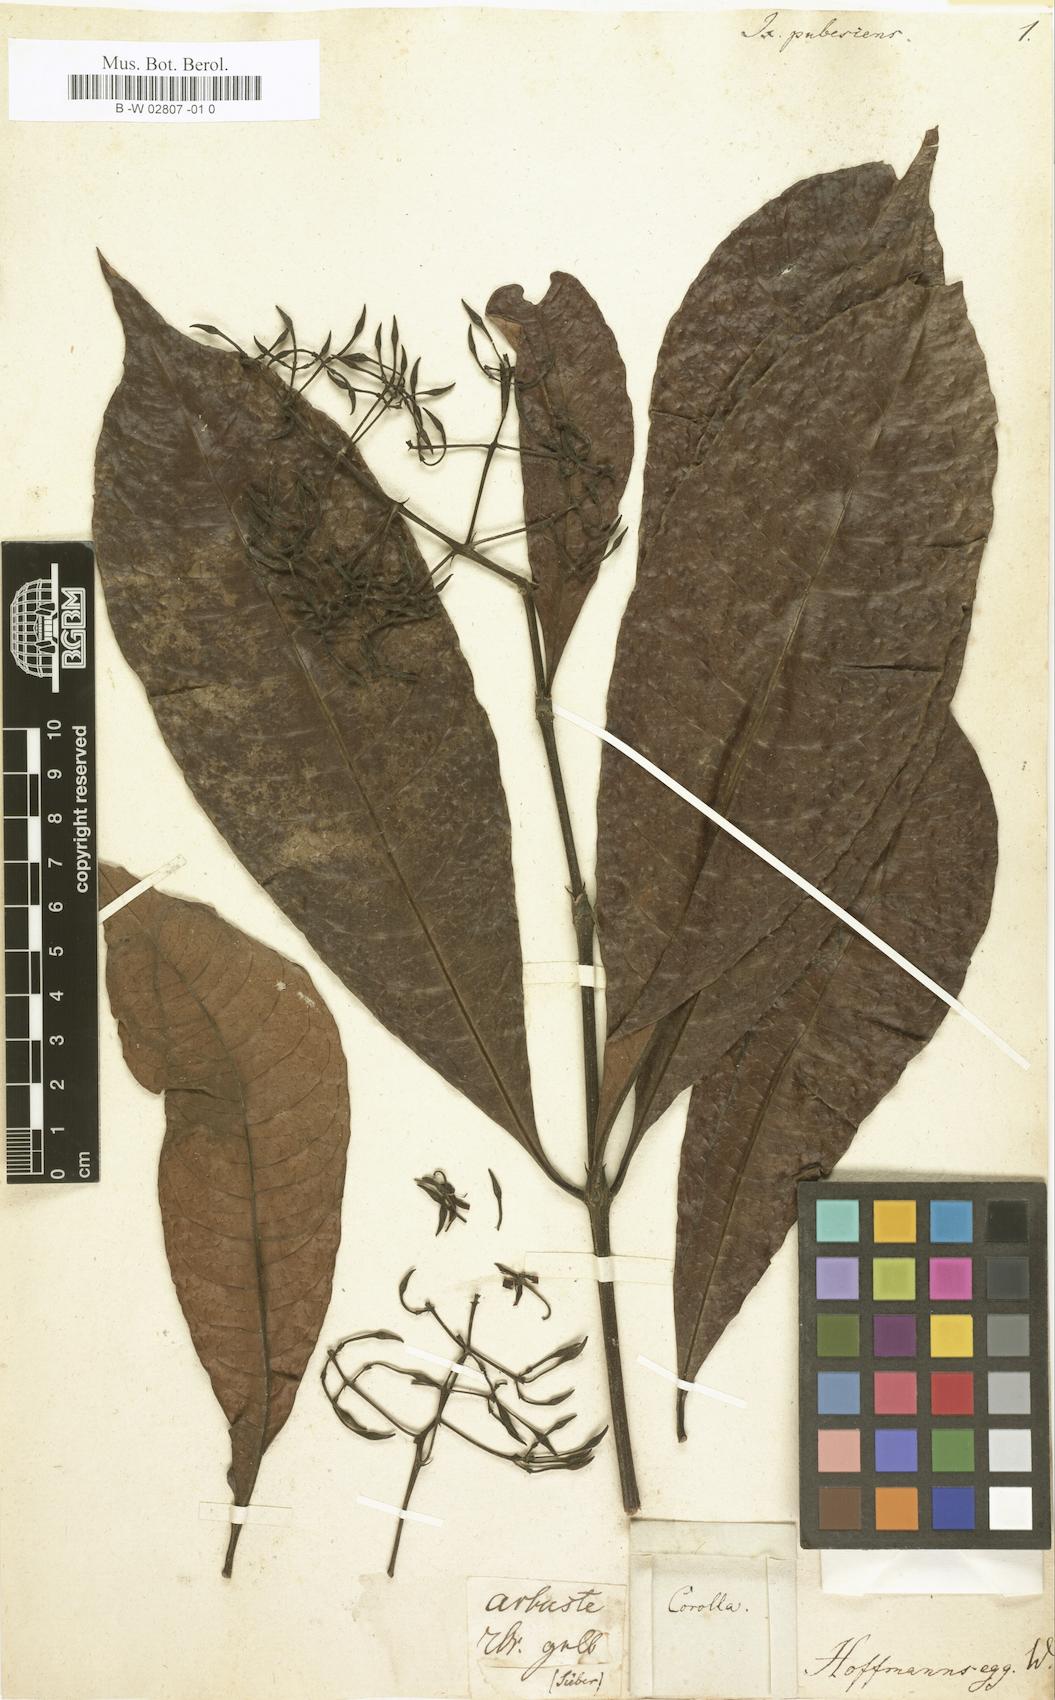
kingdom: Plantae
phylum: Tracheophyta
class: Magnoliopsida
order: Gentianales
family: Rubiaceae
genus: Ixora
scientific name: Ixora pubescens
